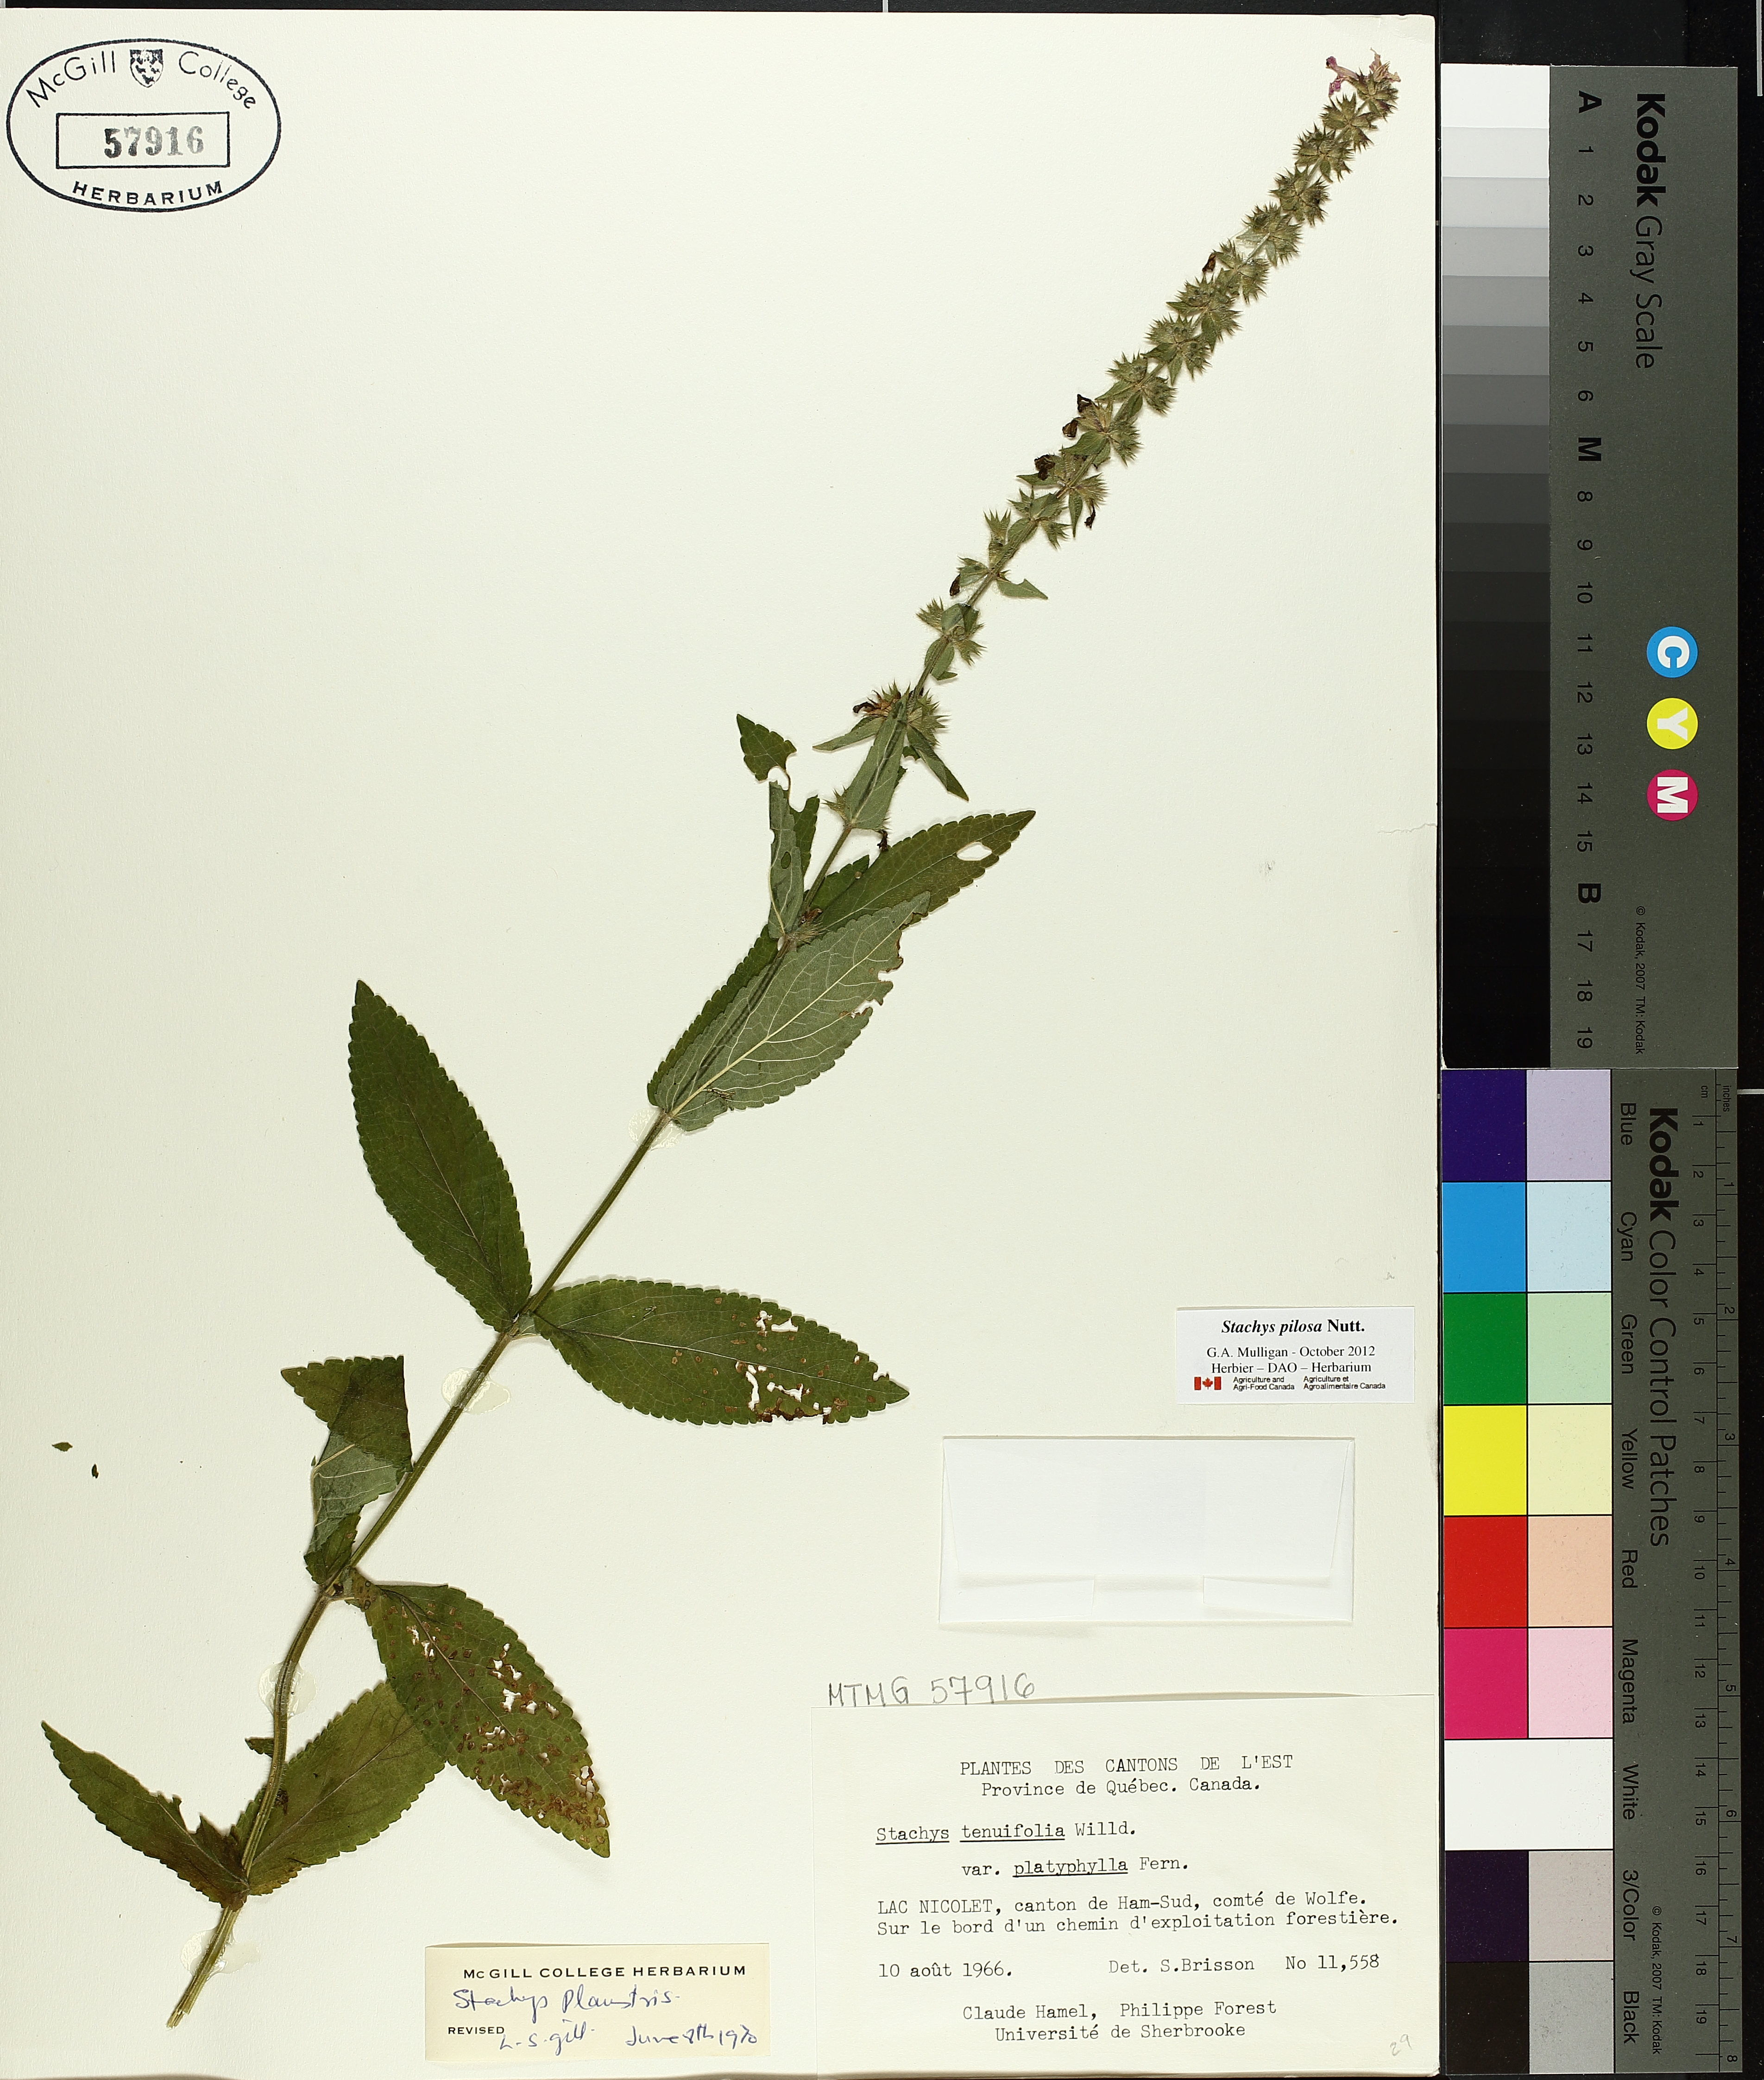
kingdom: Plantae
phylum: Tracheophyta
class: Magnoliopsida
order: Lamiales
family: Lamiaceae
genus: Stachys
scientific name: Stachys palustris
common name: Marsh woundwort
